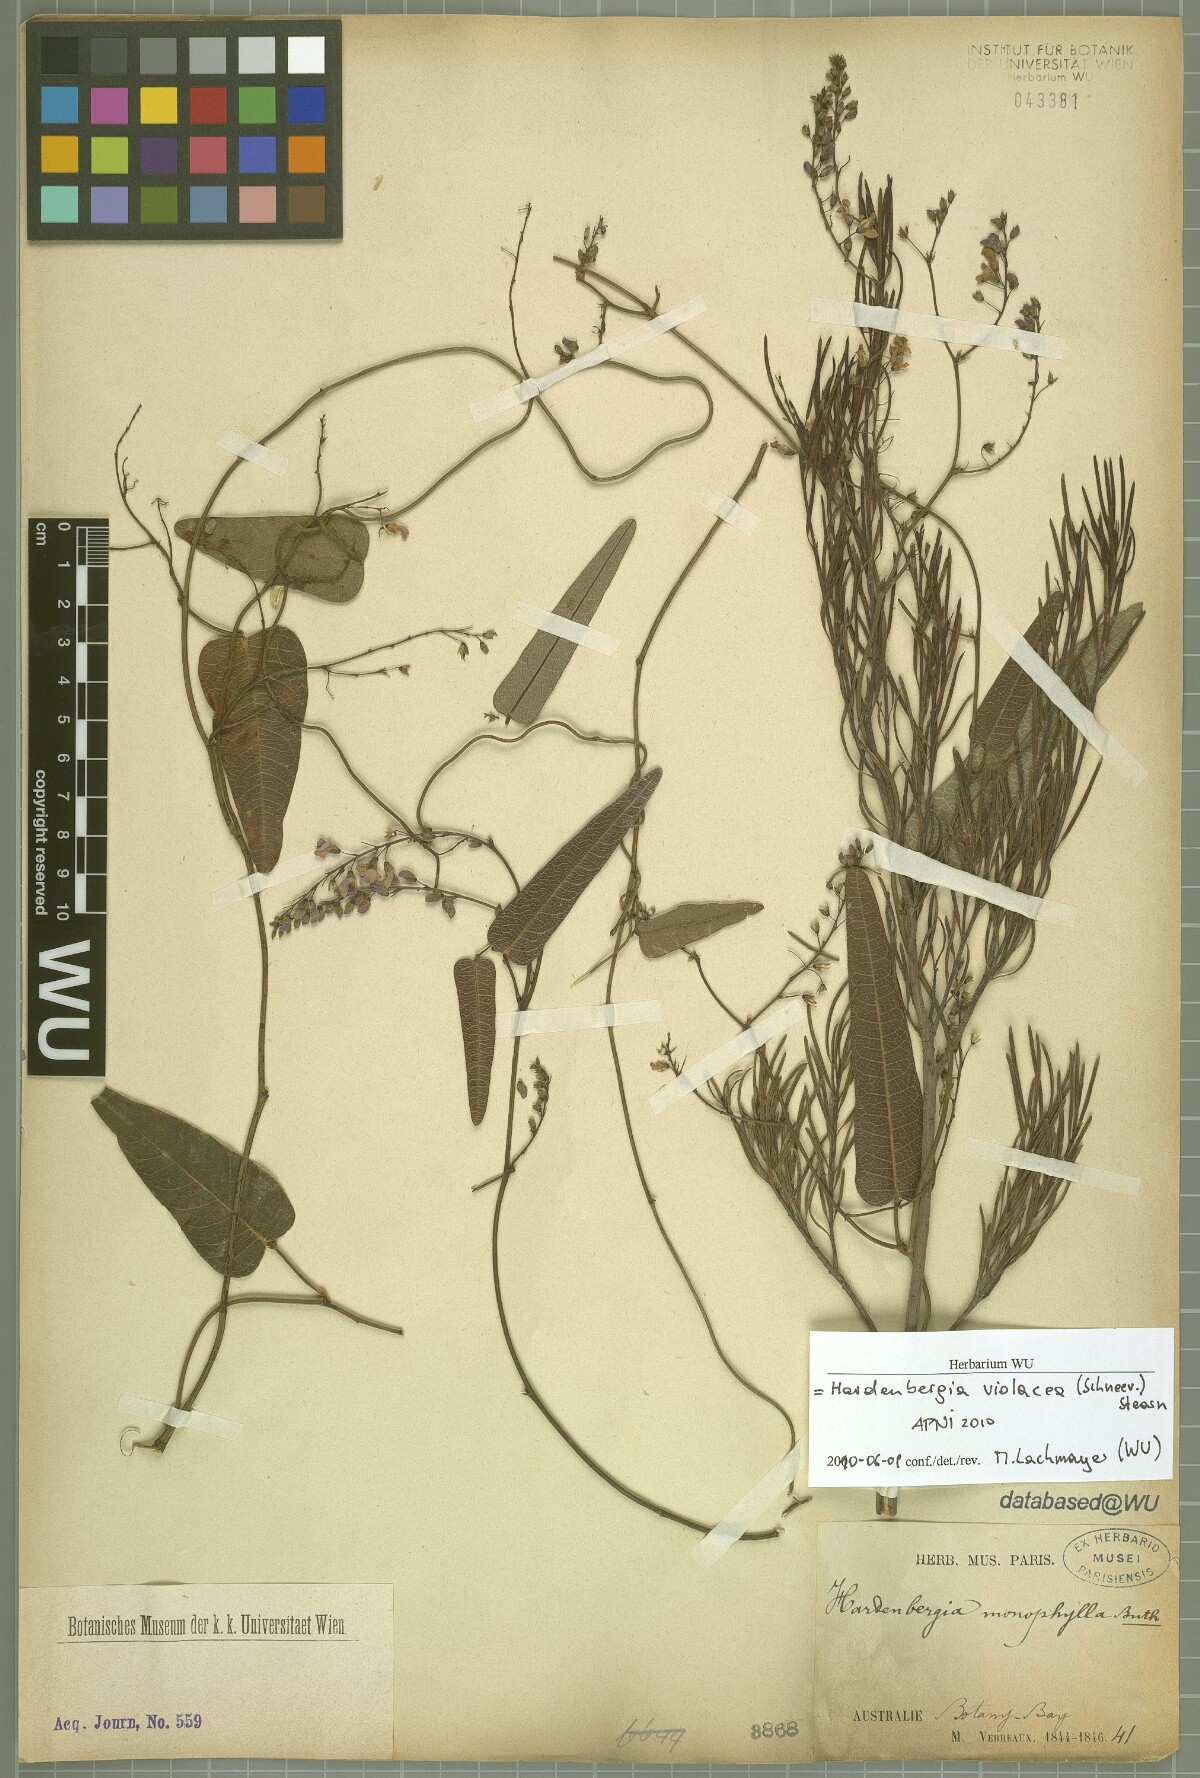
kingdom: Plantae
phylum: Tracheophyta
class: Magnoliopsida
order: Fabales
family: Fabaceae
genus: Hardenbergia
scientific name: Hardenbergia violacea
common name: Coral-pea
